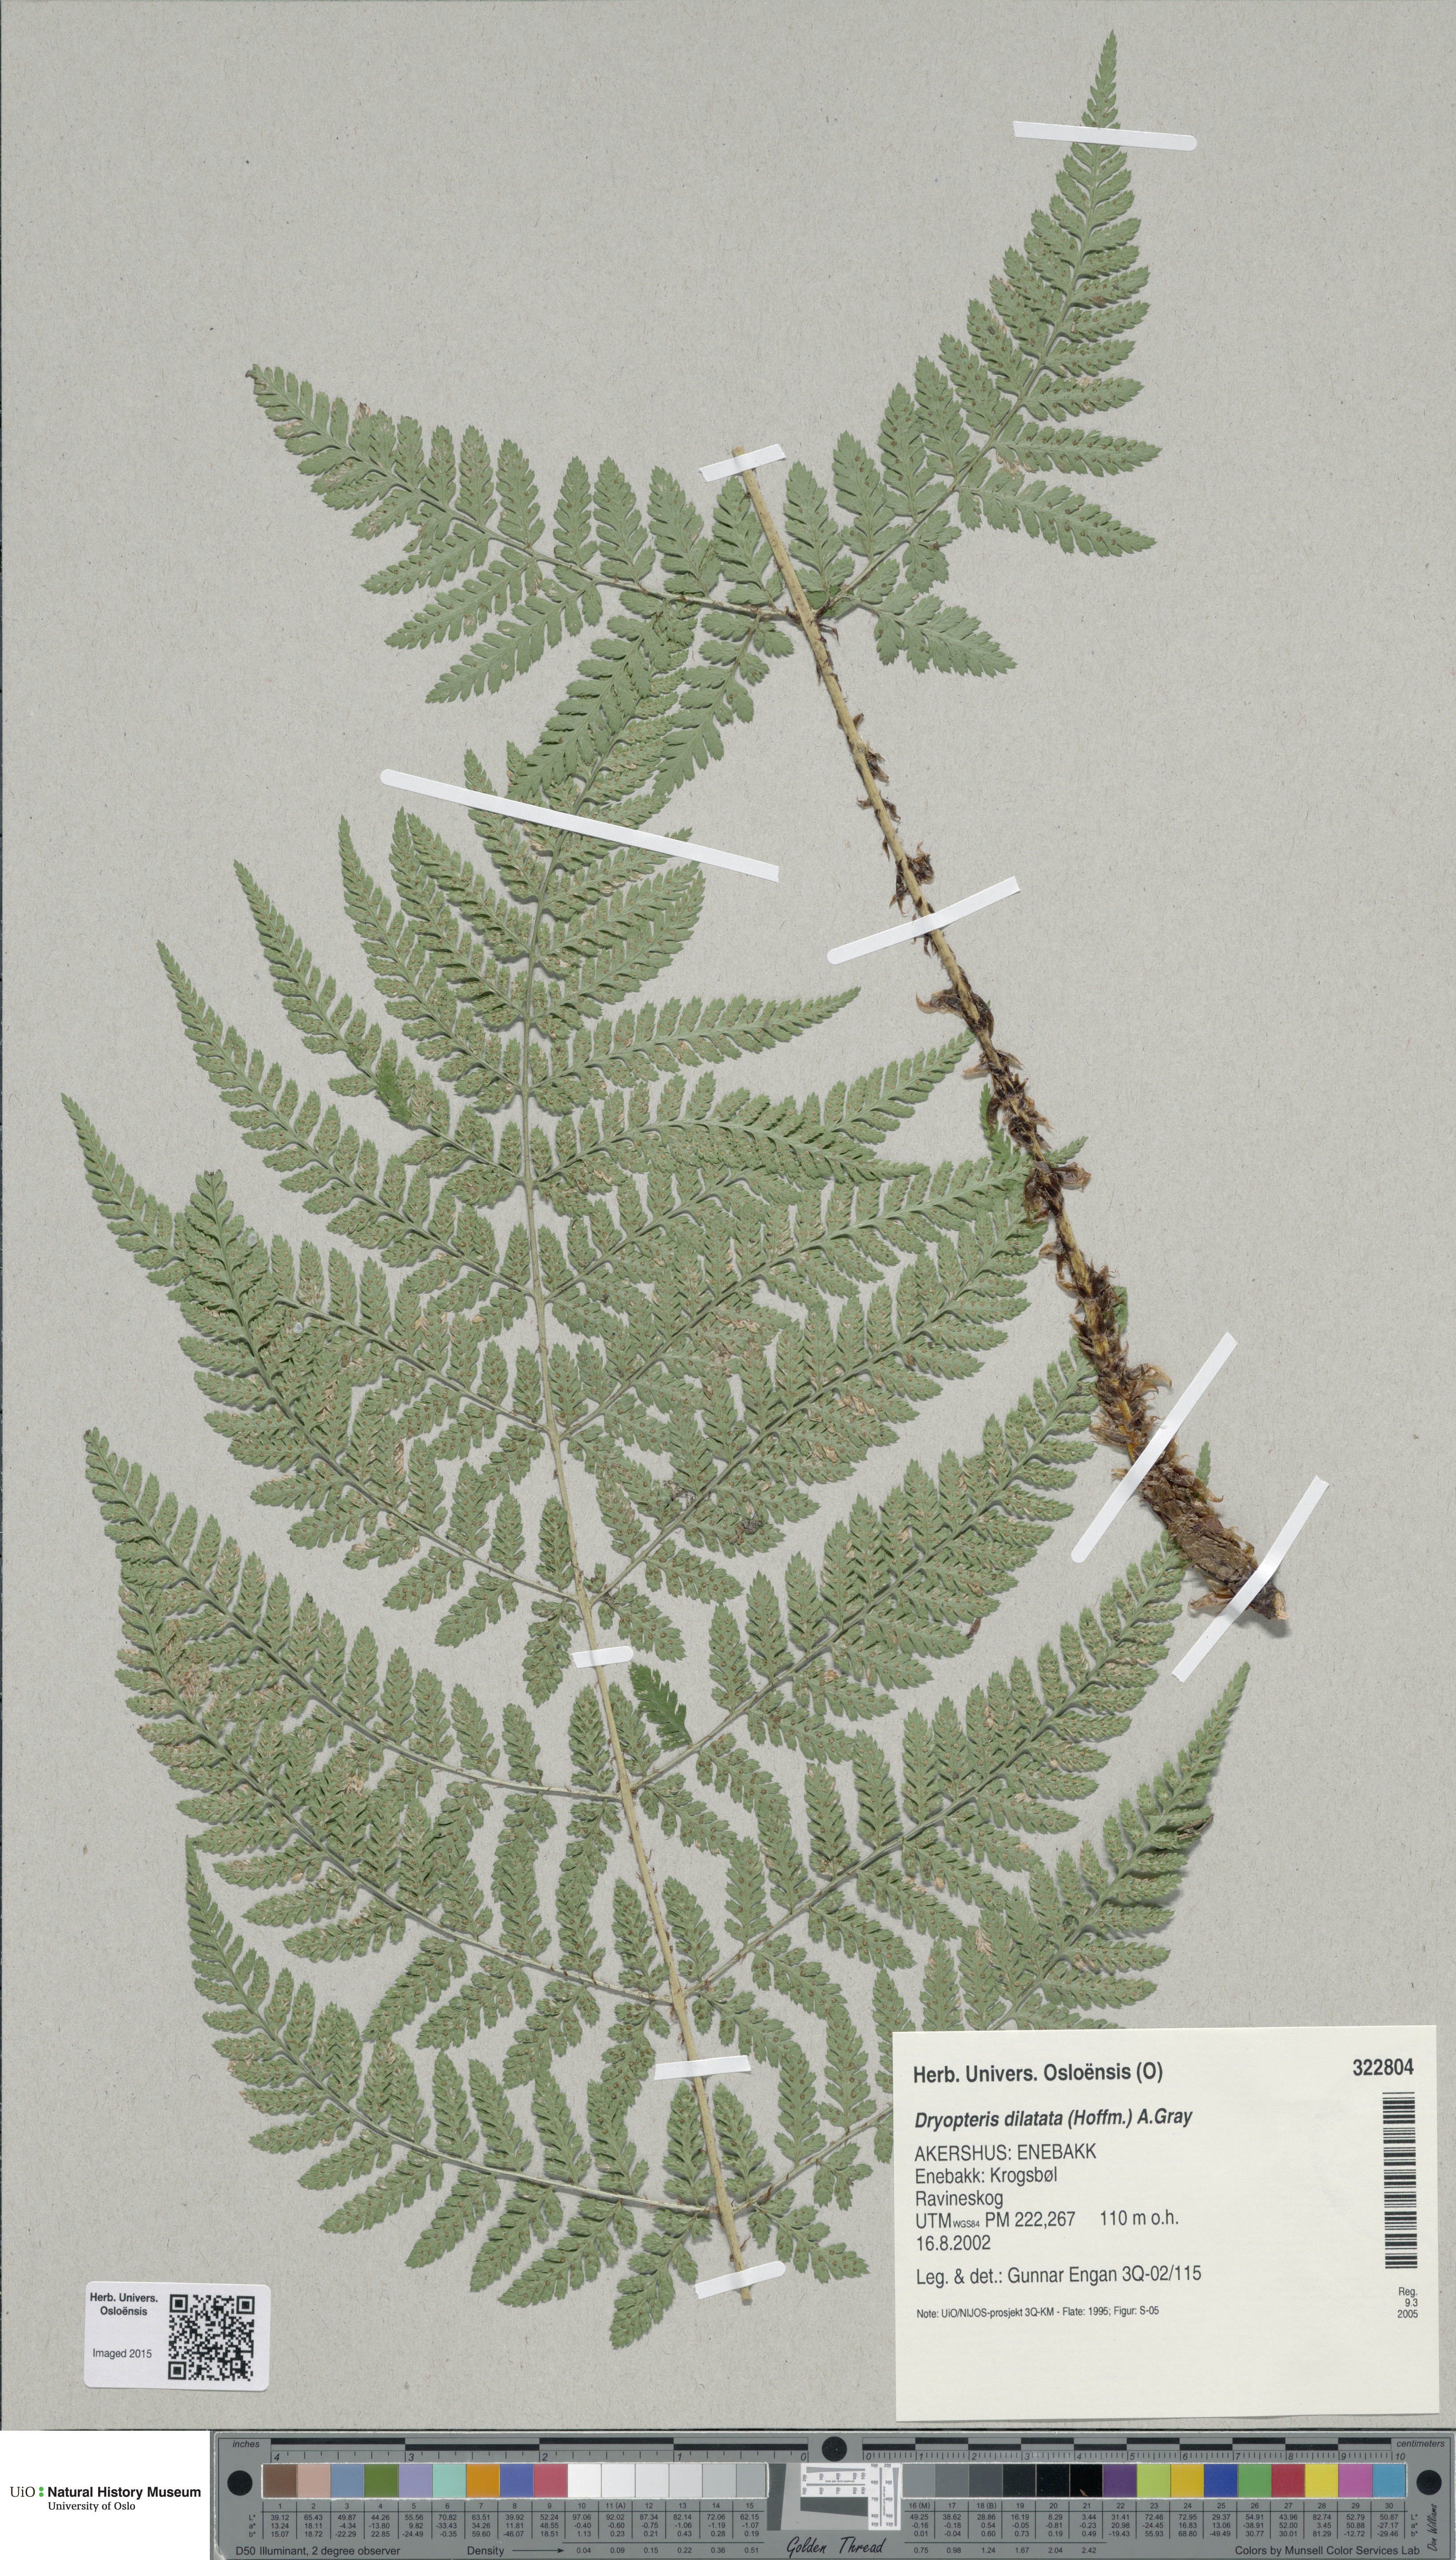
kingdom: Plantae
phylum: Tracheophyta
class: Polypodiopsida
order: Polypodiales
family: Dryopteridaceae
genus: Dryopteris
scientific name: Dryopteris dilatata
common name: Broad buckler-fern
